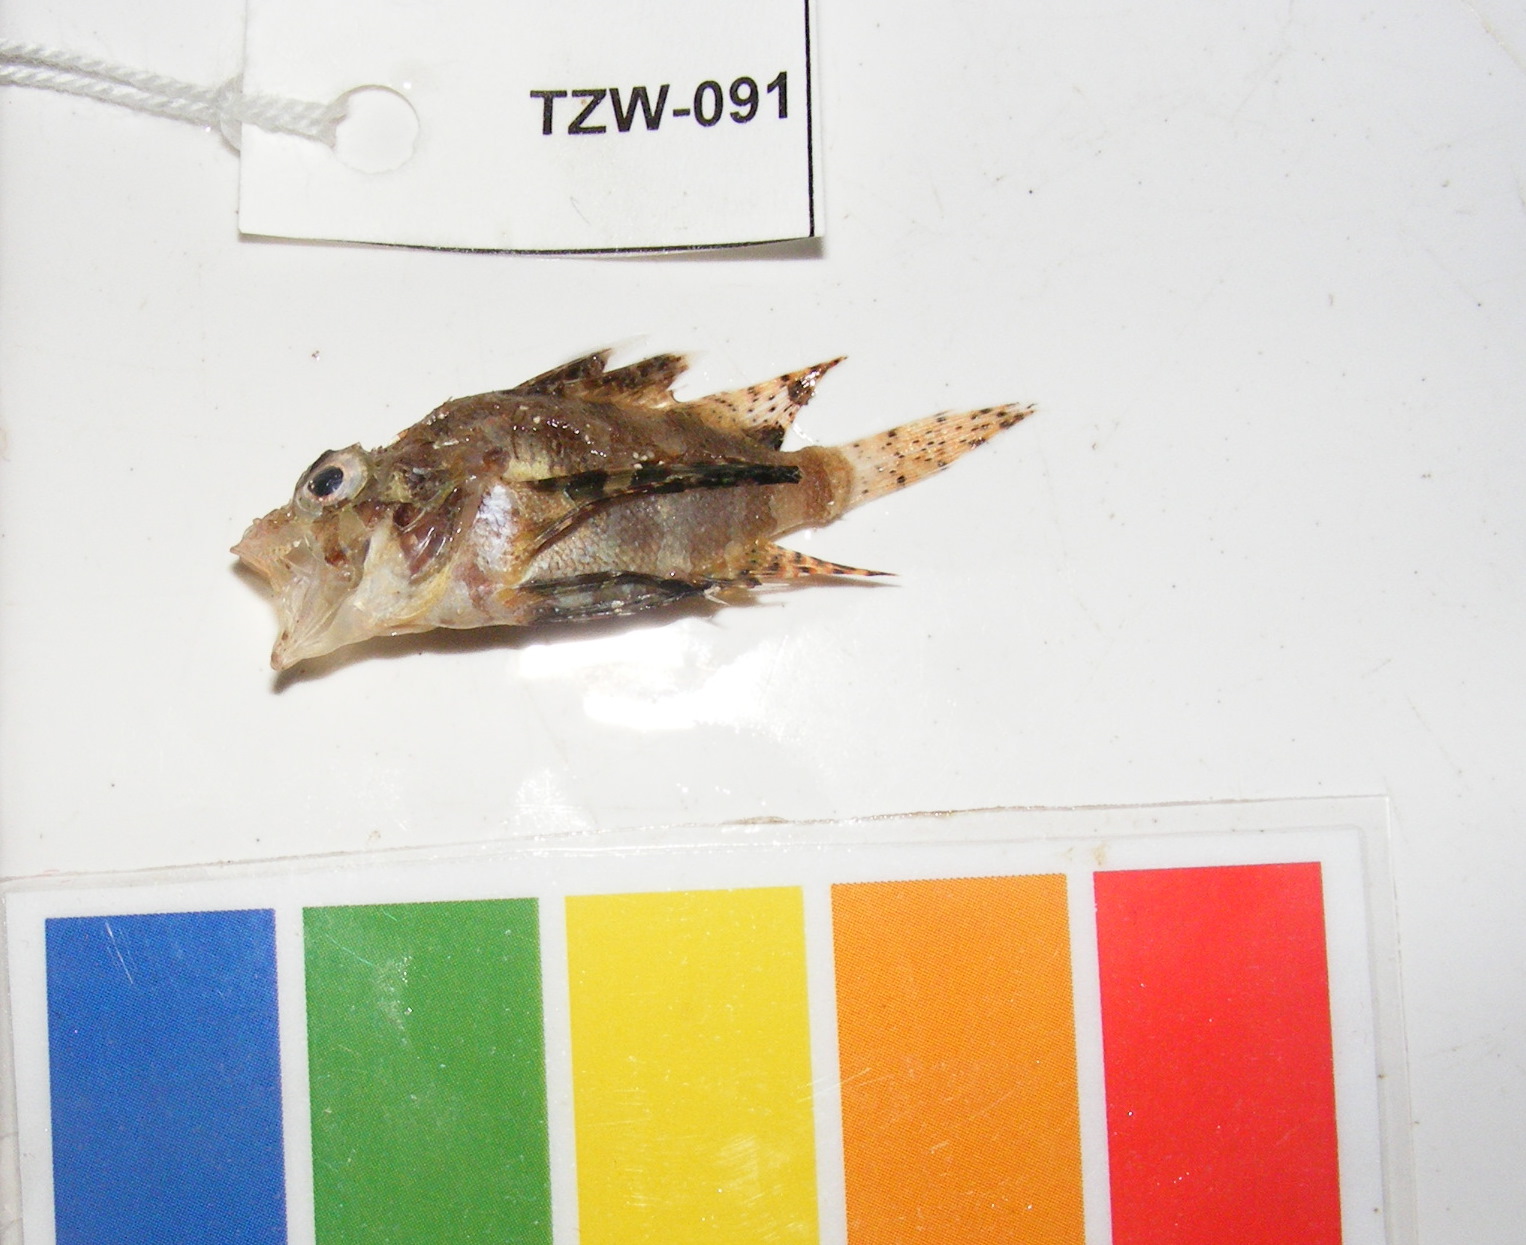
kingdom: Animalia
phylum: Chordata
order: Scorpaeniformes
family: Scorpaenidae
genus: Dendrochirus
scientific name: Dendrochirus hemprichi
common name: Red sea dwarf lionfish
